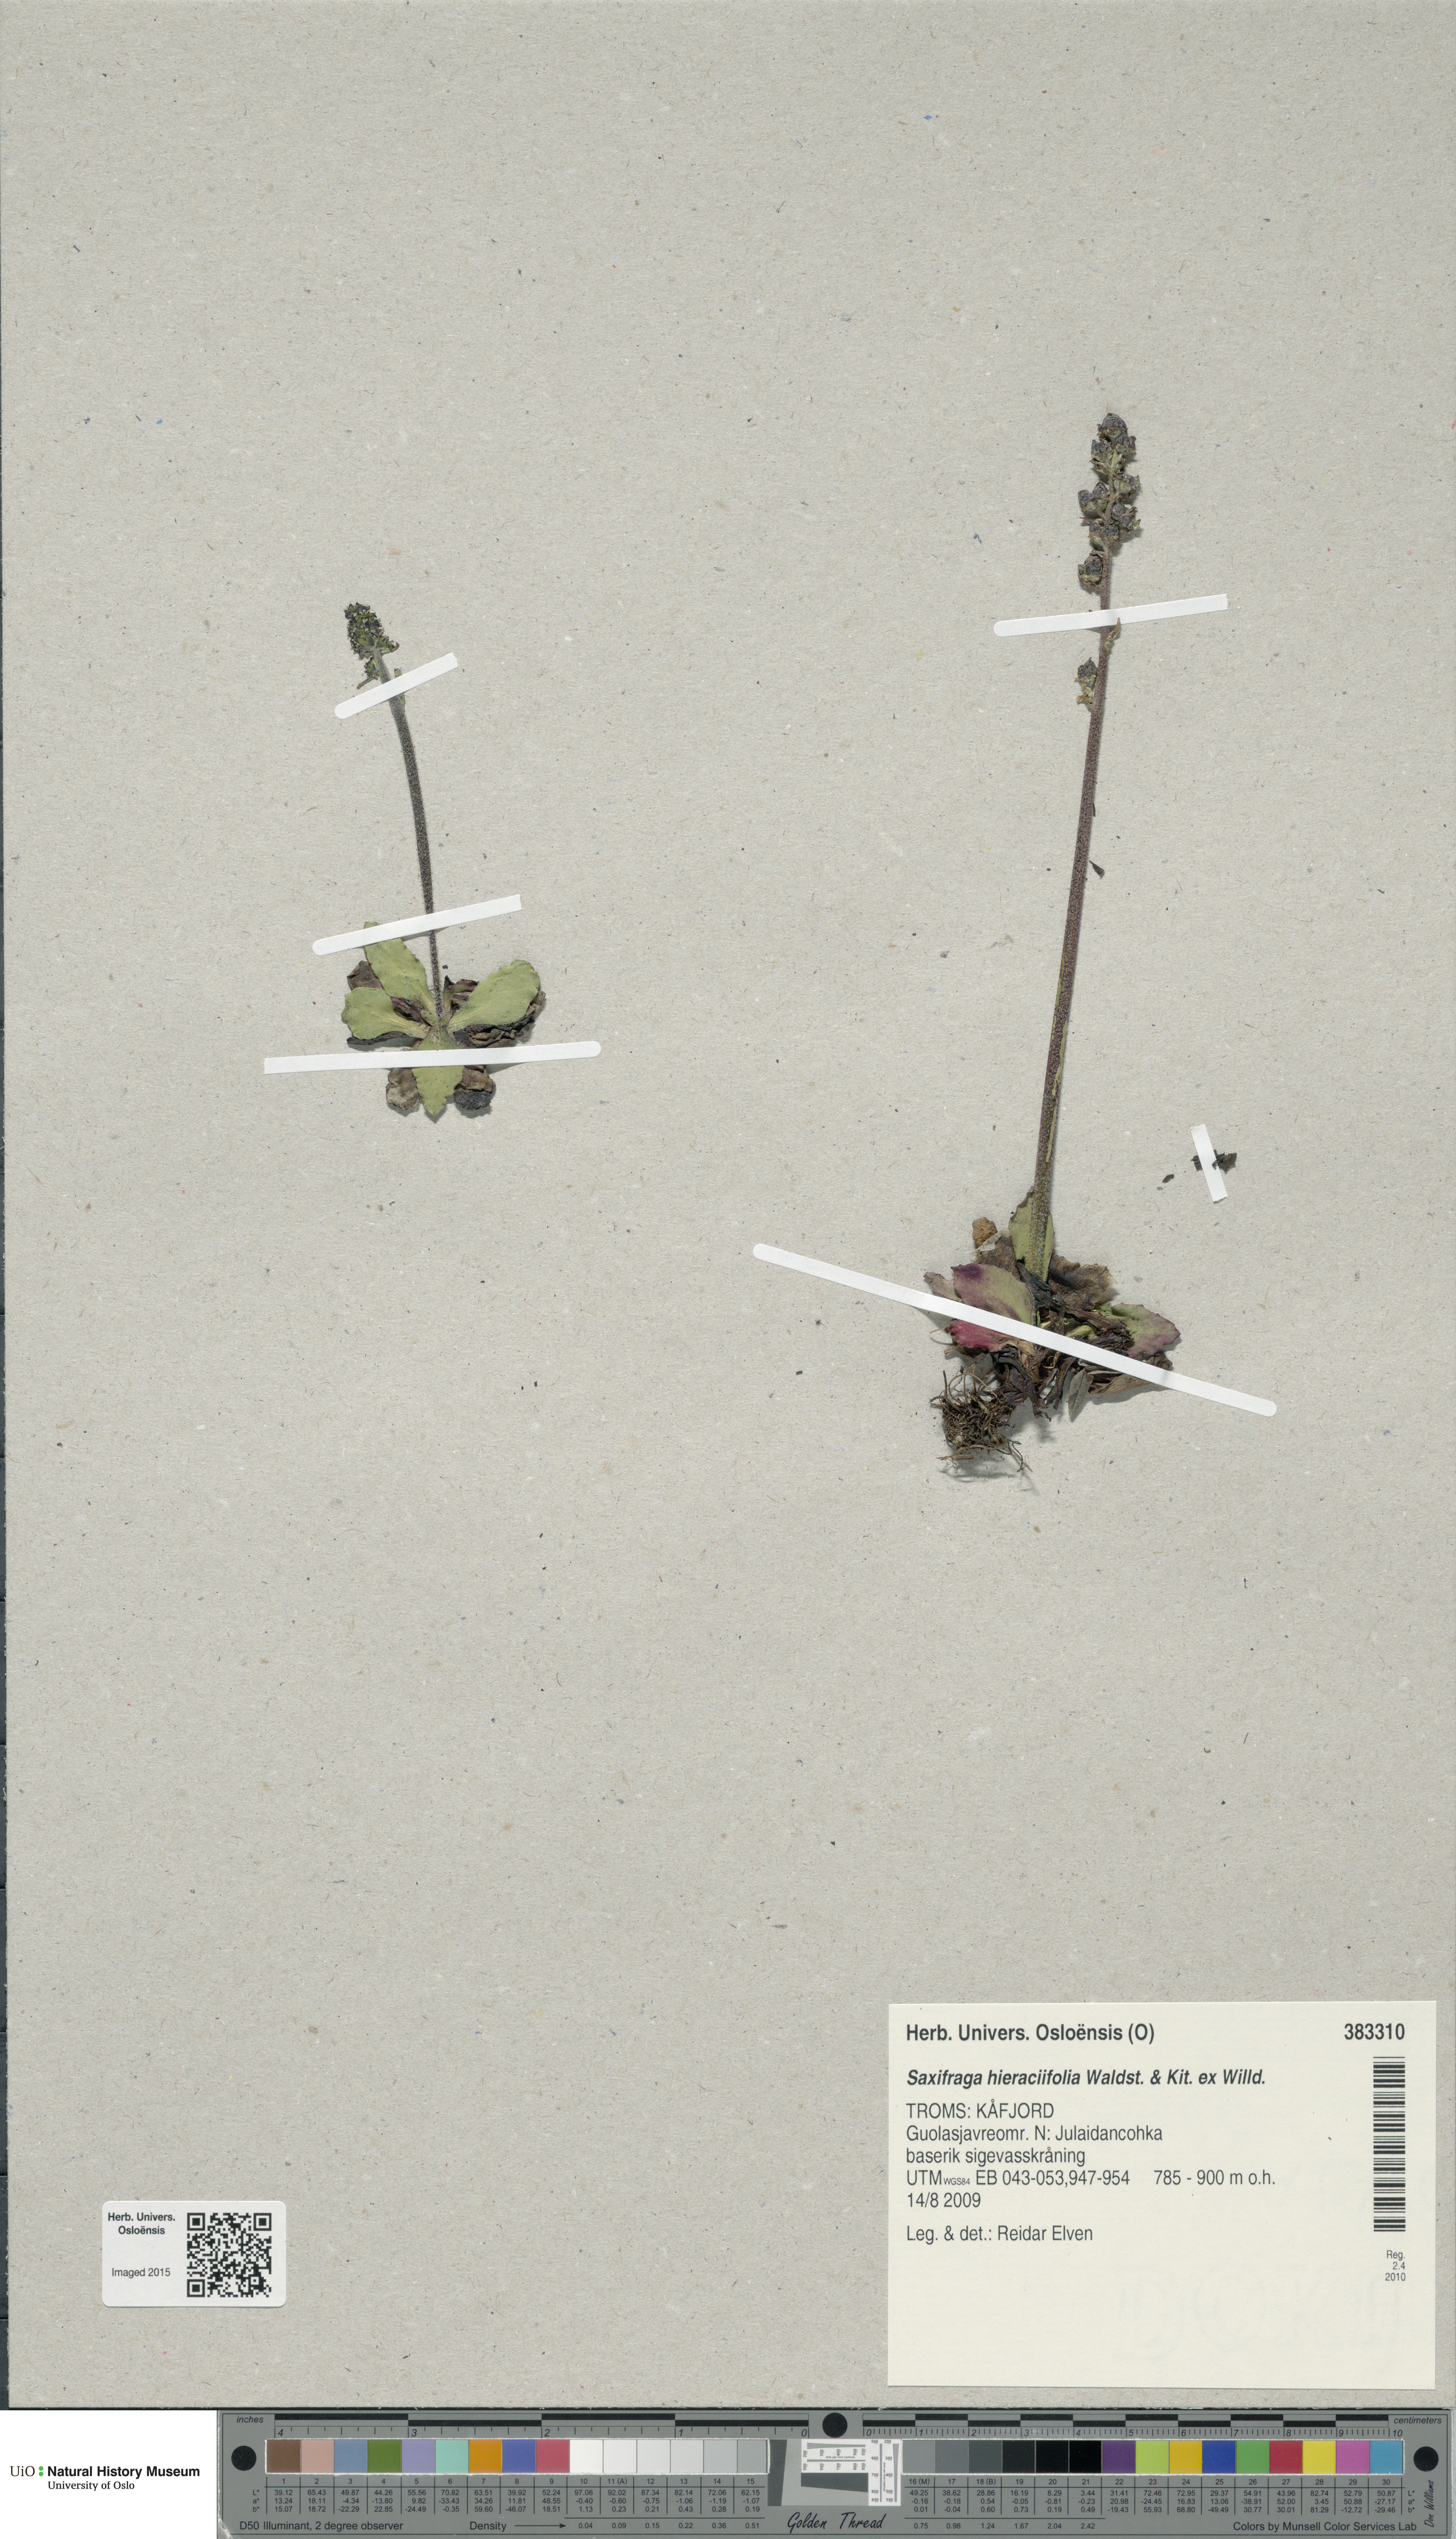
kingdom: Plantae
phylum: Tracheophyta
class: Magnoliopsida
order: Saxifragales
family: Saxifragaceae
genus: Micranthes
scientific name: Micranthes hieraciifolia
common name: Hawkweed-leaved saxifrage
